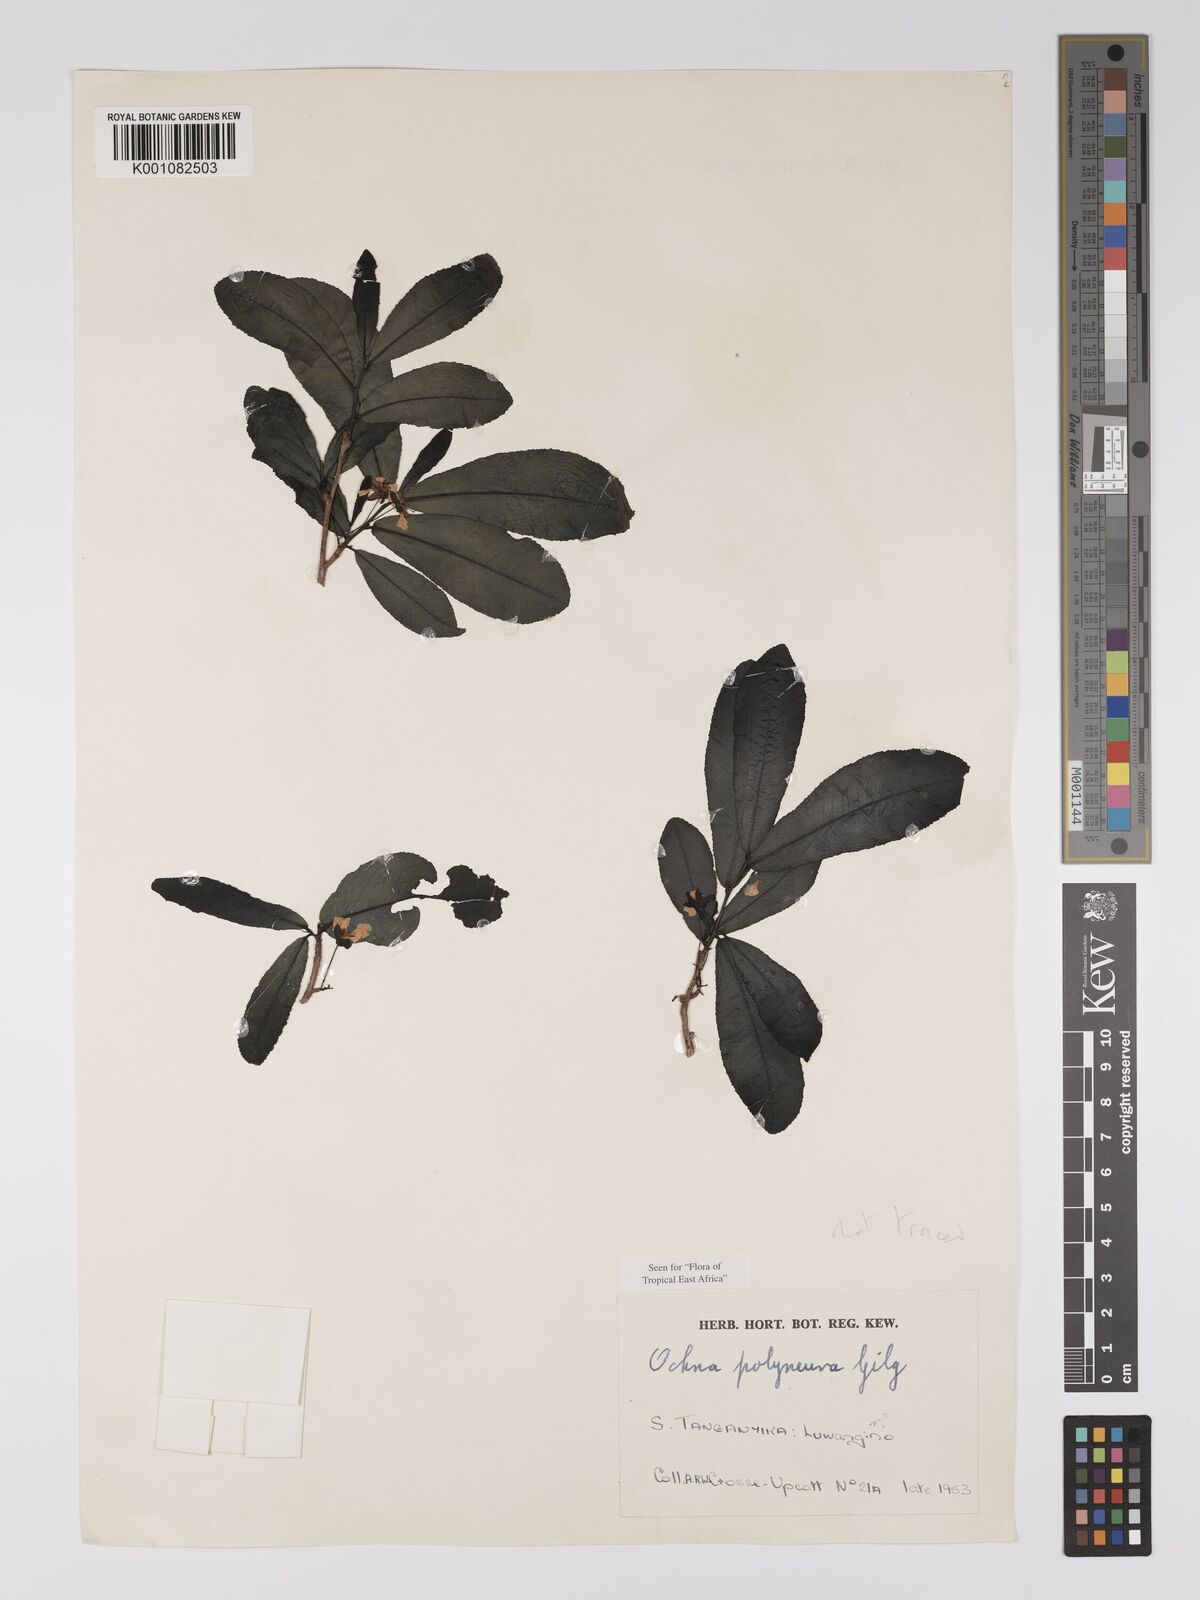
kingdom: Plantae
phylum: Tracheophyta
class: Magnoliopsida
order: Malpighiales
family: Ochnaceae
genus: Ochna
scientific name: Ochna
